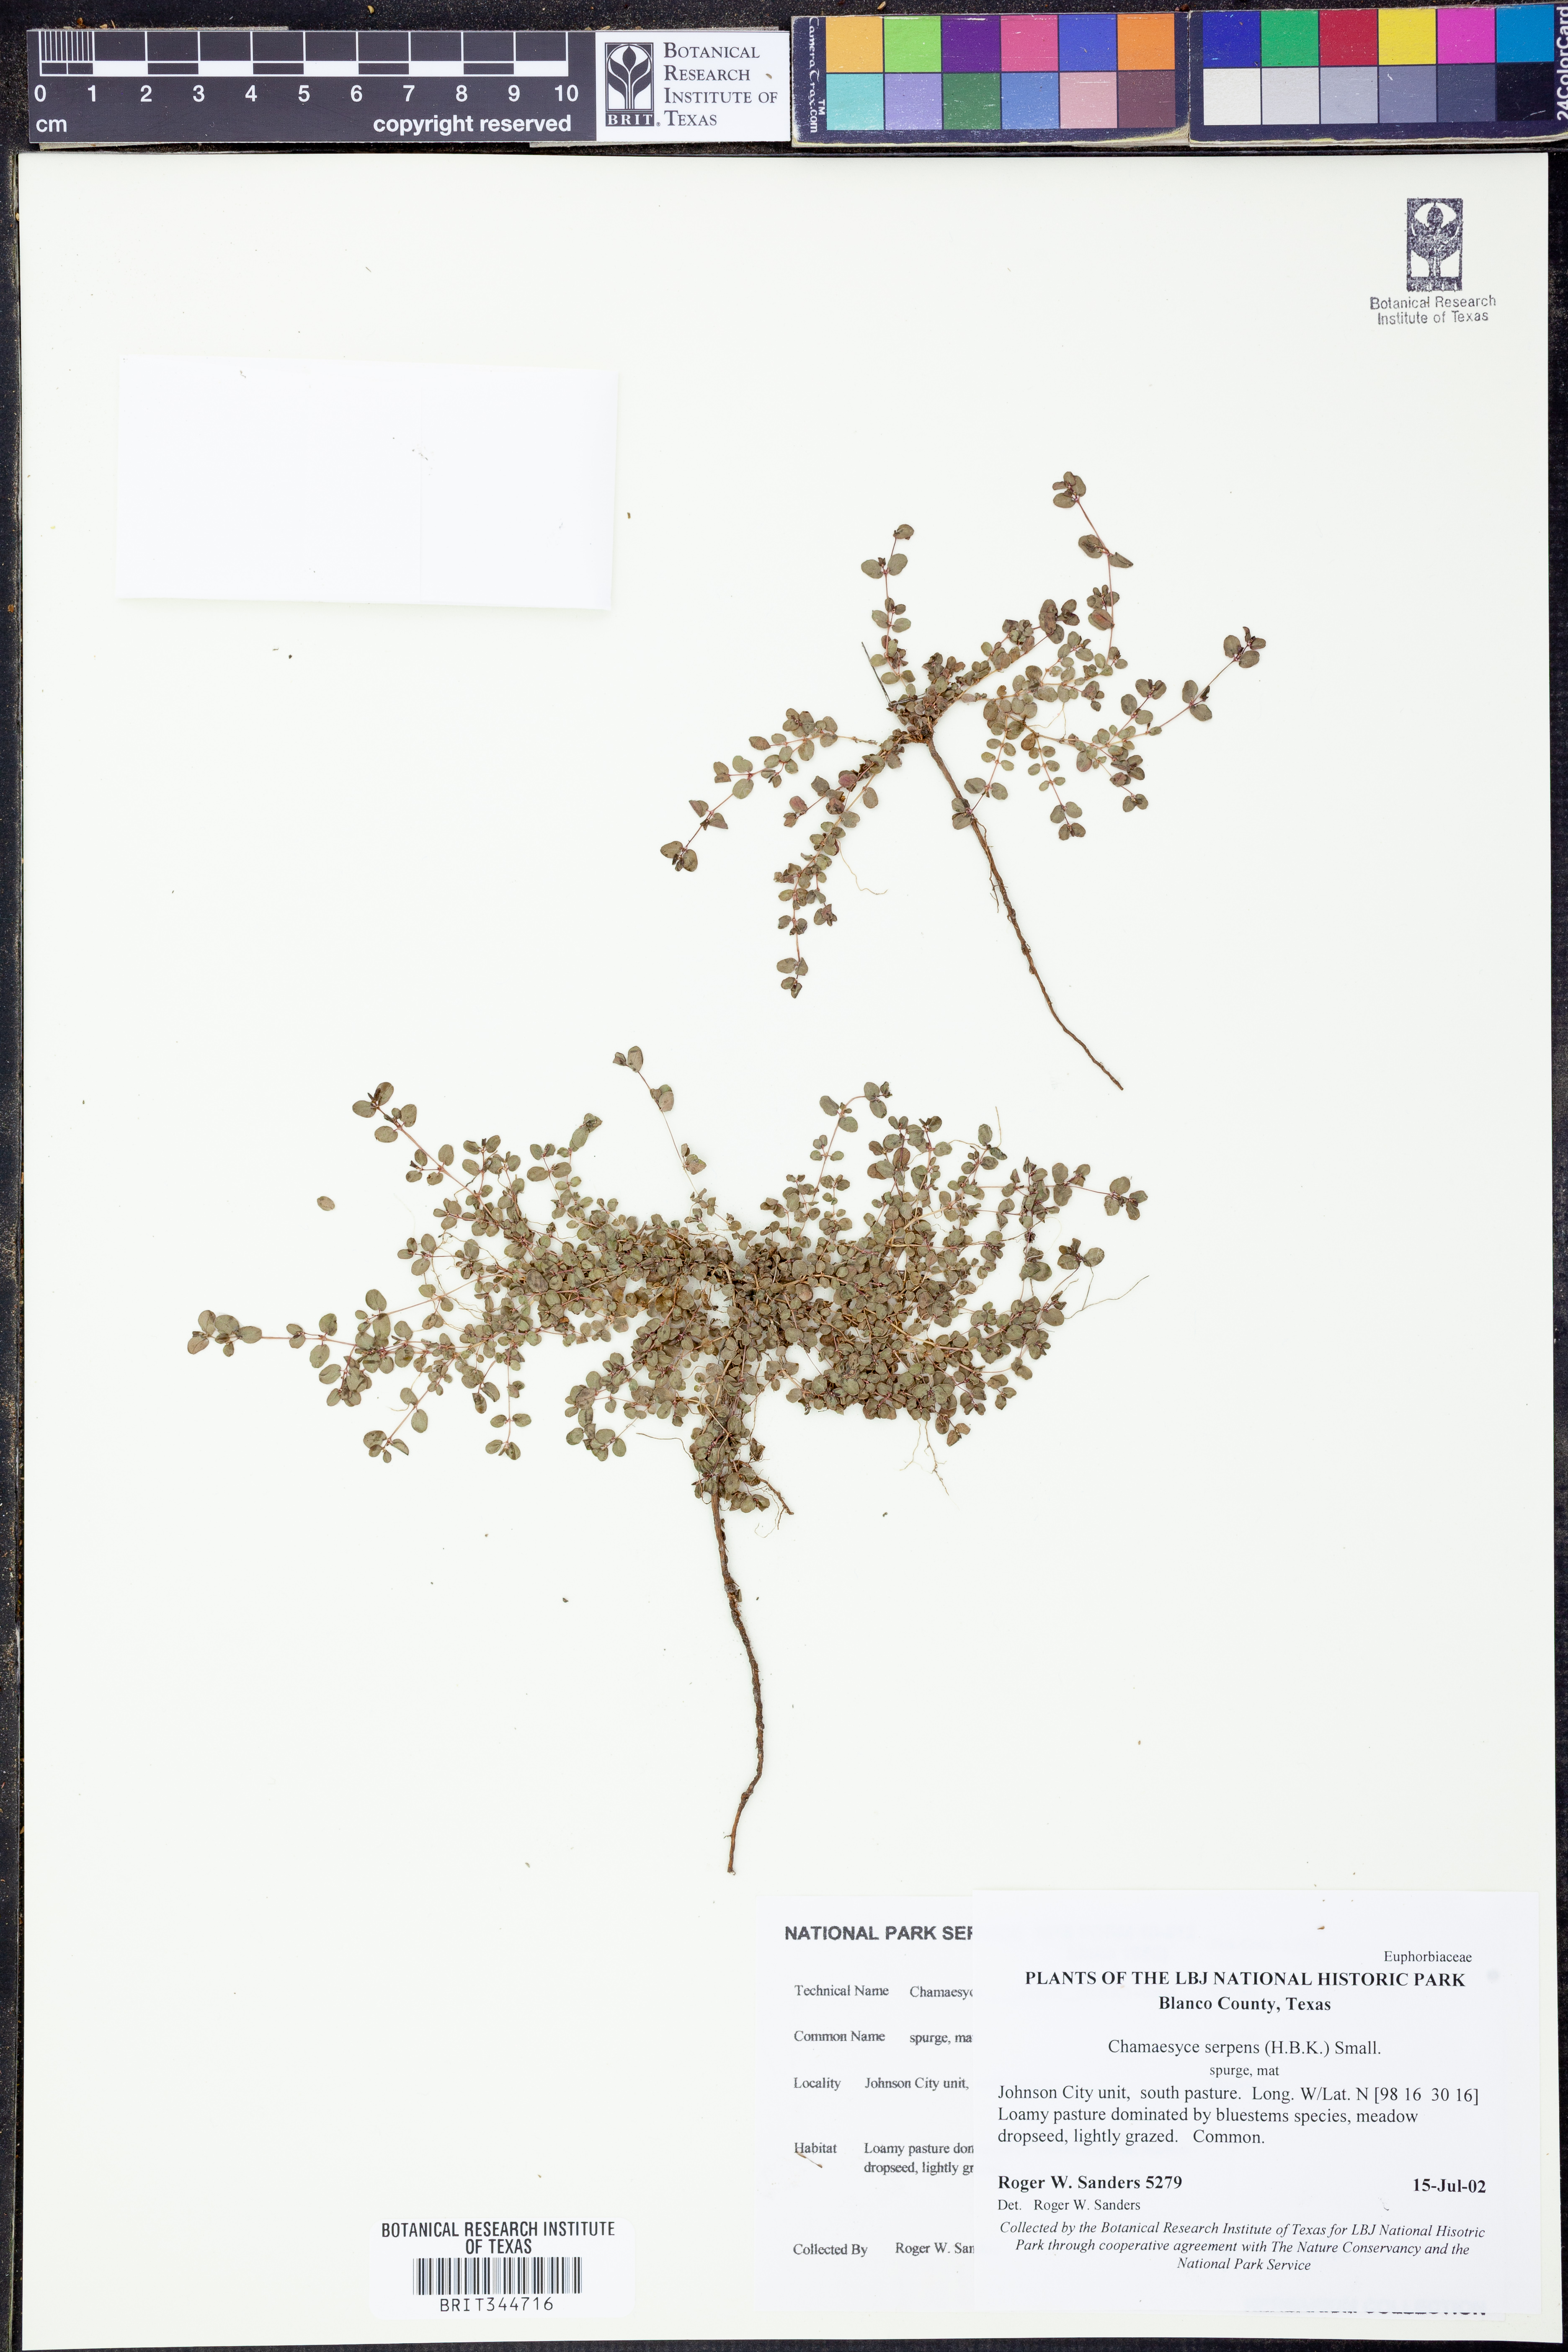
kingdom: Plantae
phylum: Tracheophyta
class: Magnoliopsida
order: Malpighiales
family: Euphorbiaceae
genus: Euphorbia
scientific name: Euphorbia serpens
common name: Matted sandmat
